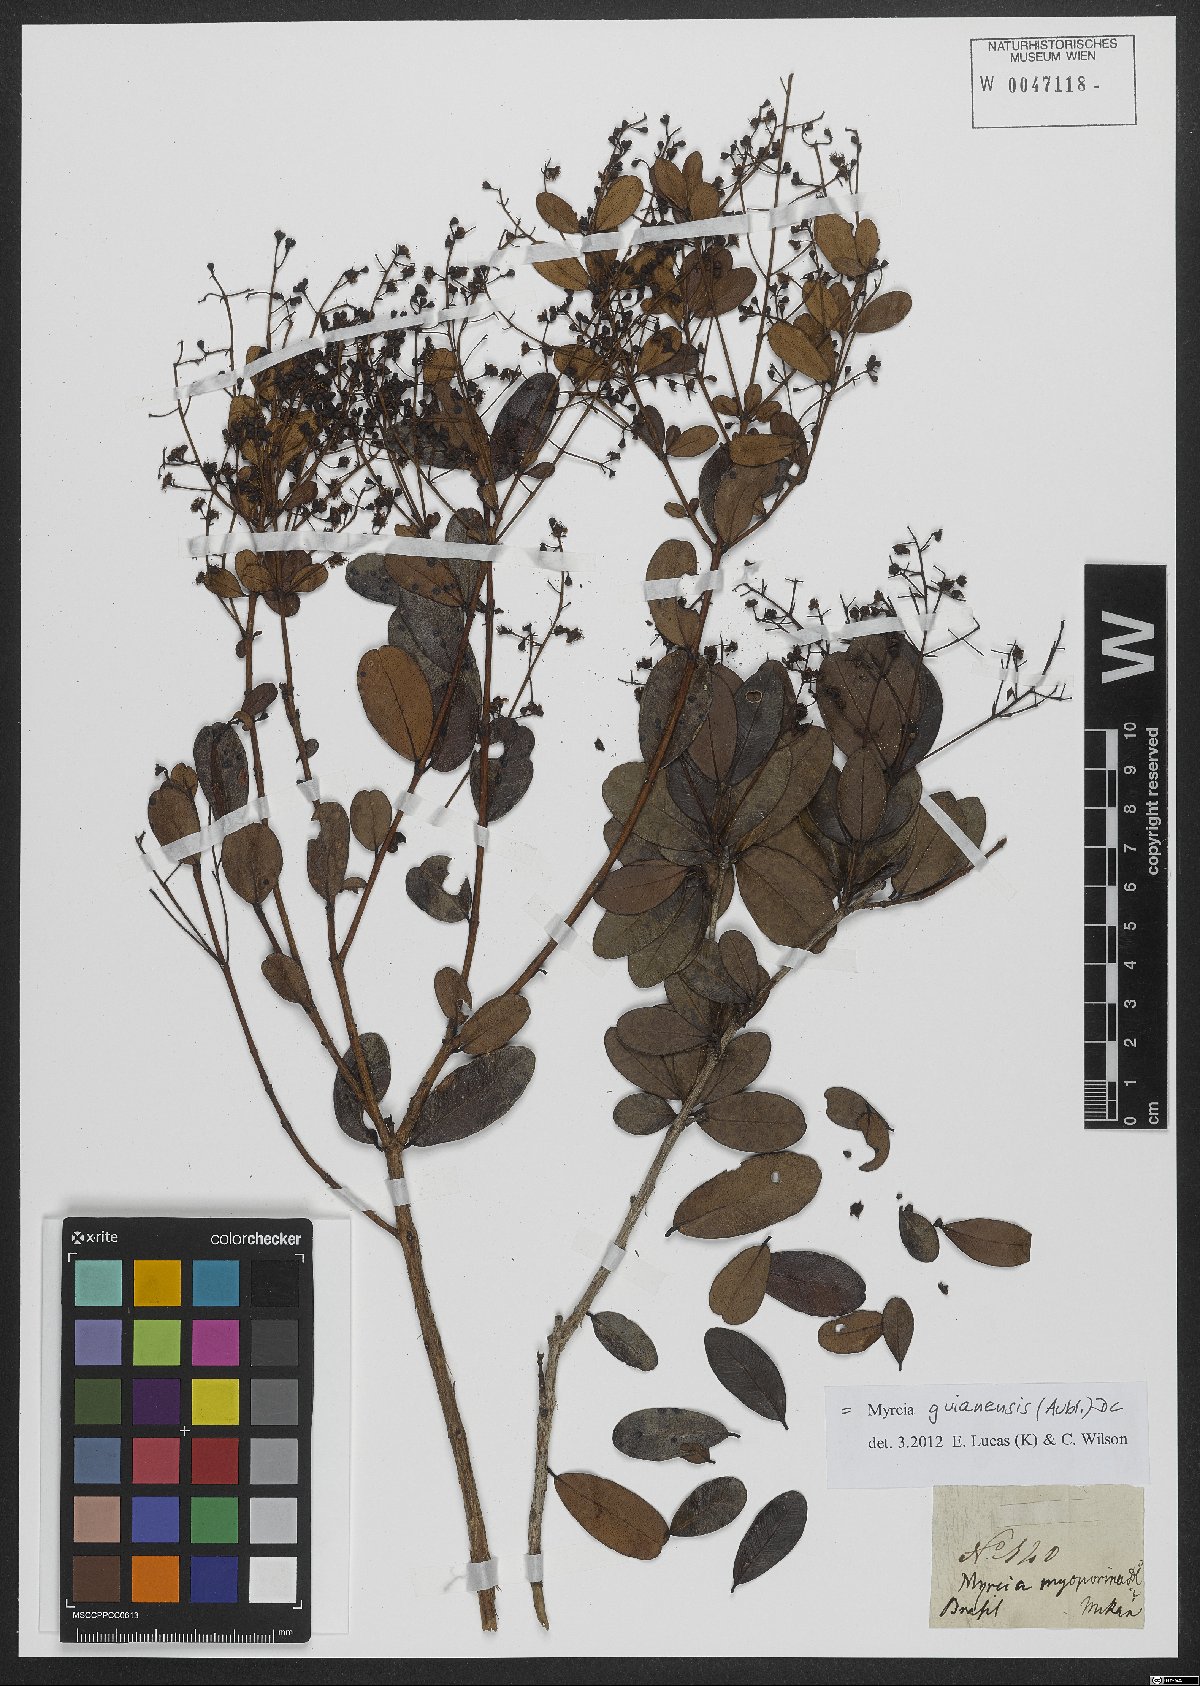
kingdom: Plantae
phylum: Tracheophyta
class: Magnoliopsida
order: Myrtales
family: Myrtaceae
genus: Myrcia
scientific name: Myrcia guianensis
